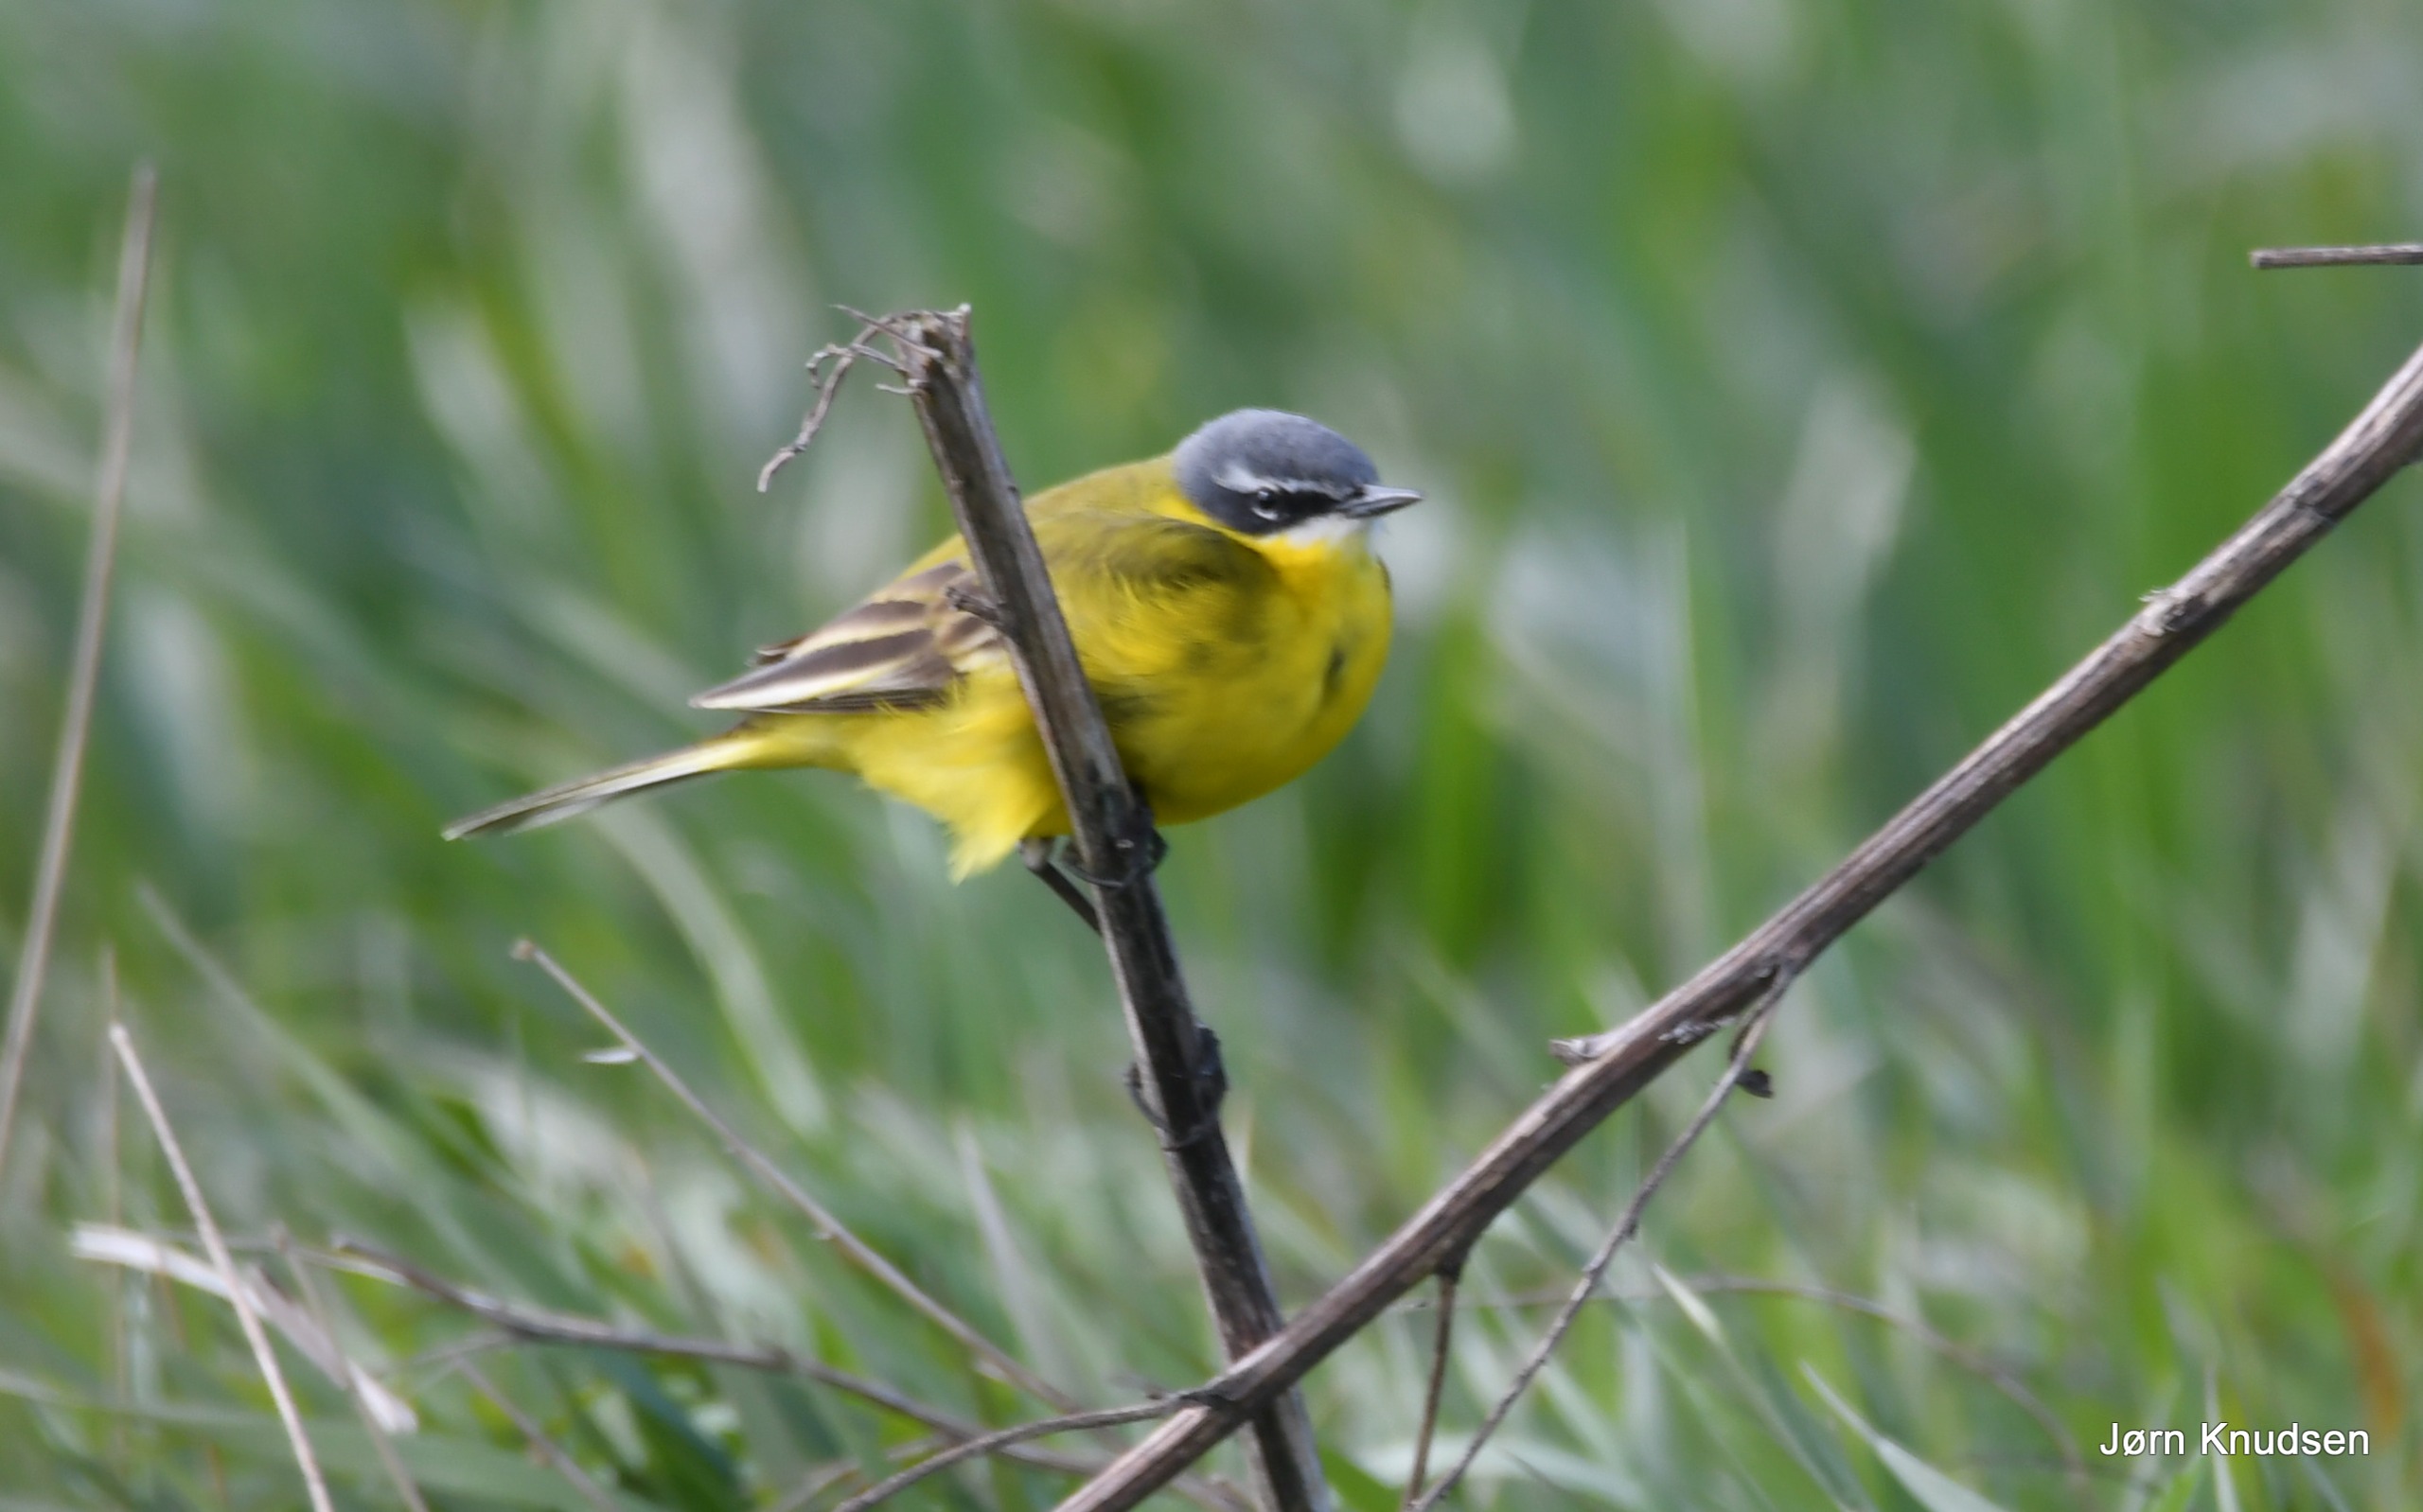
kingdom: Animalia
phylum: Chordata
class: Aves
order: Passeriformes
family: Motacillidae
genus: Motacilla
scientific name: Motacilla flava
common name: Gul vipstjert
